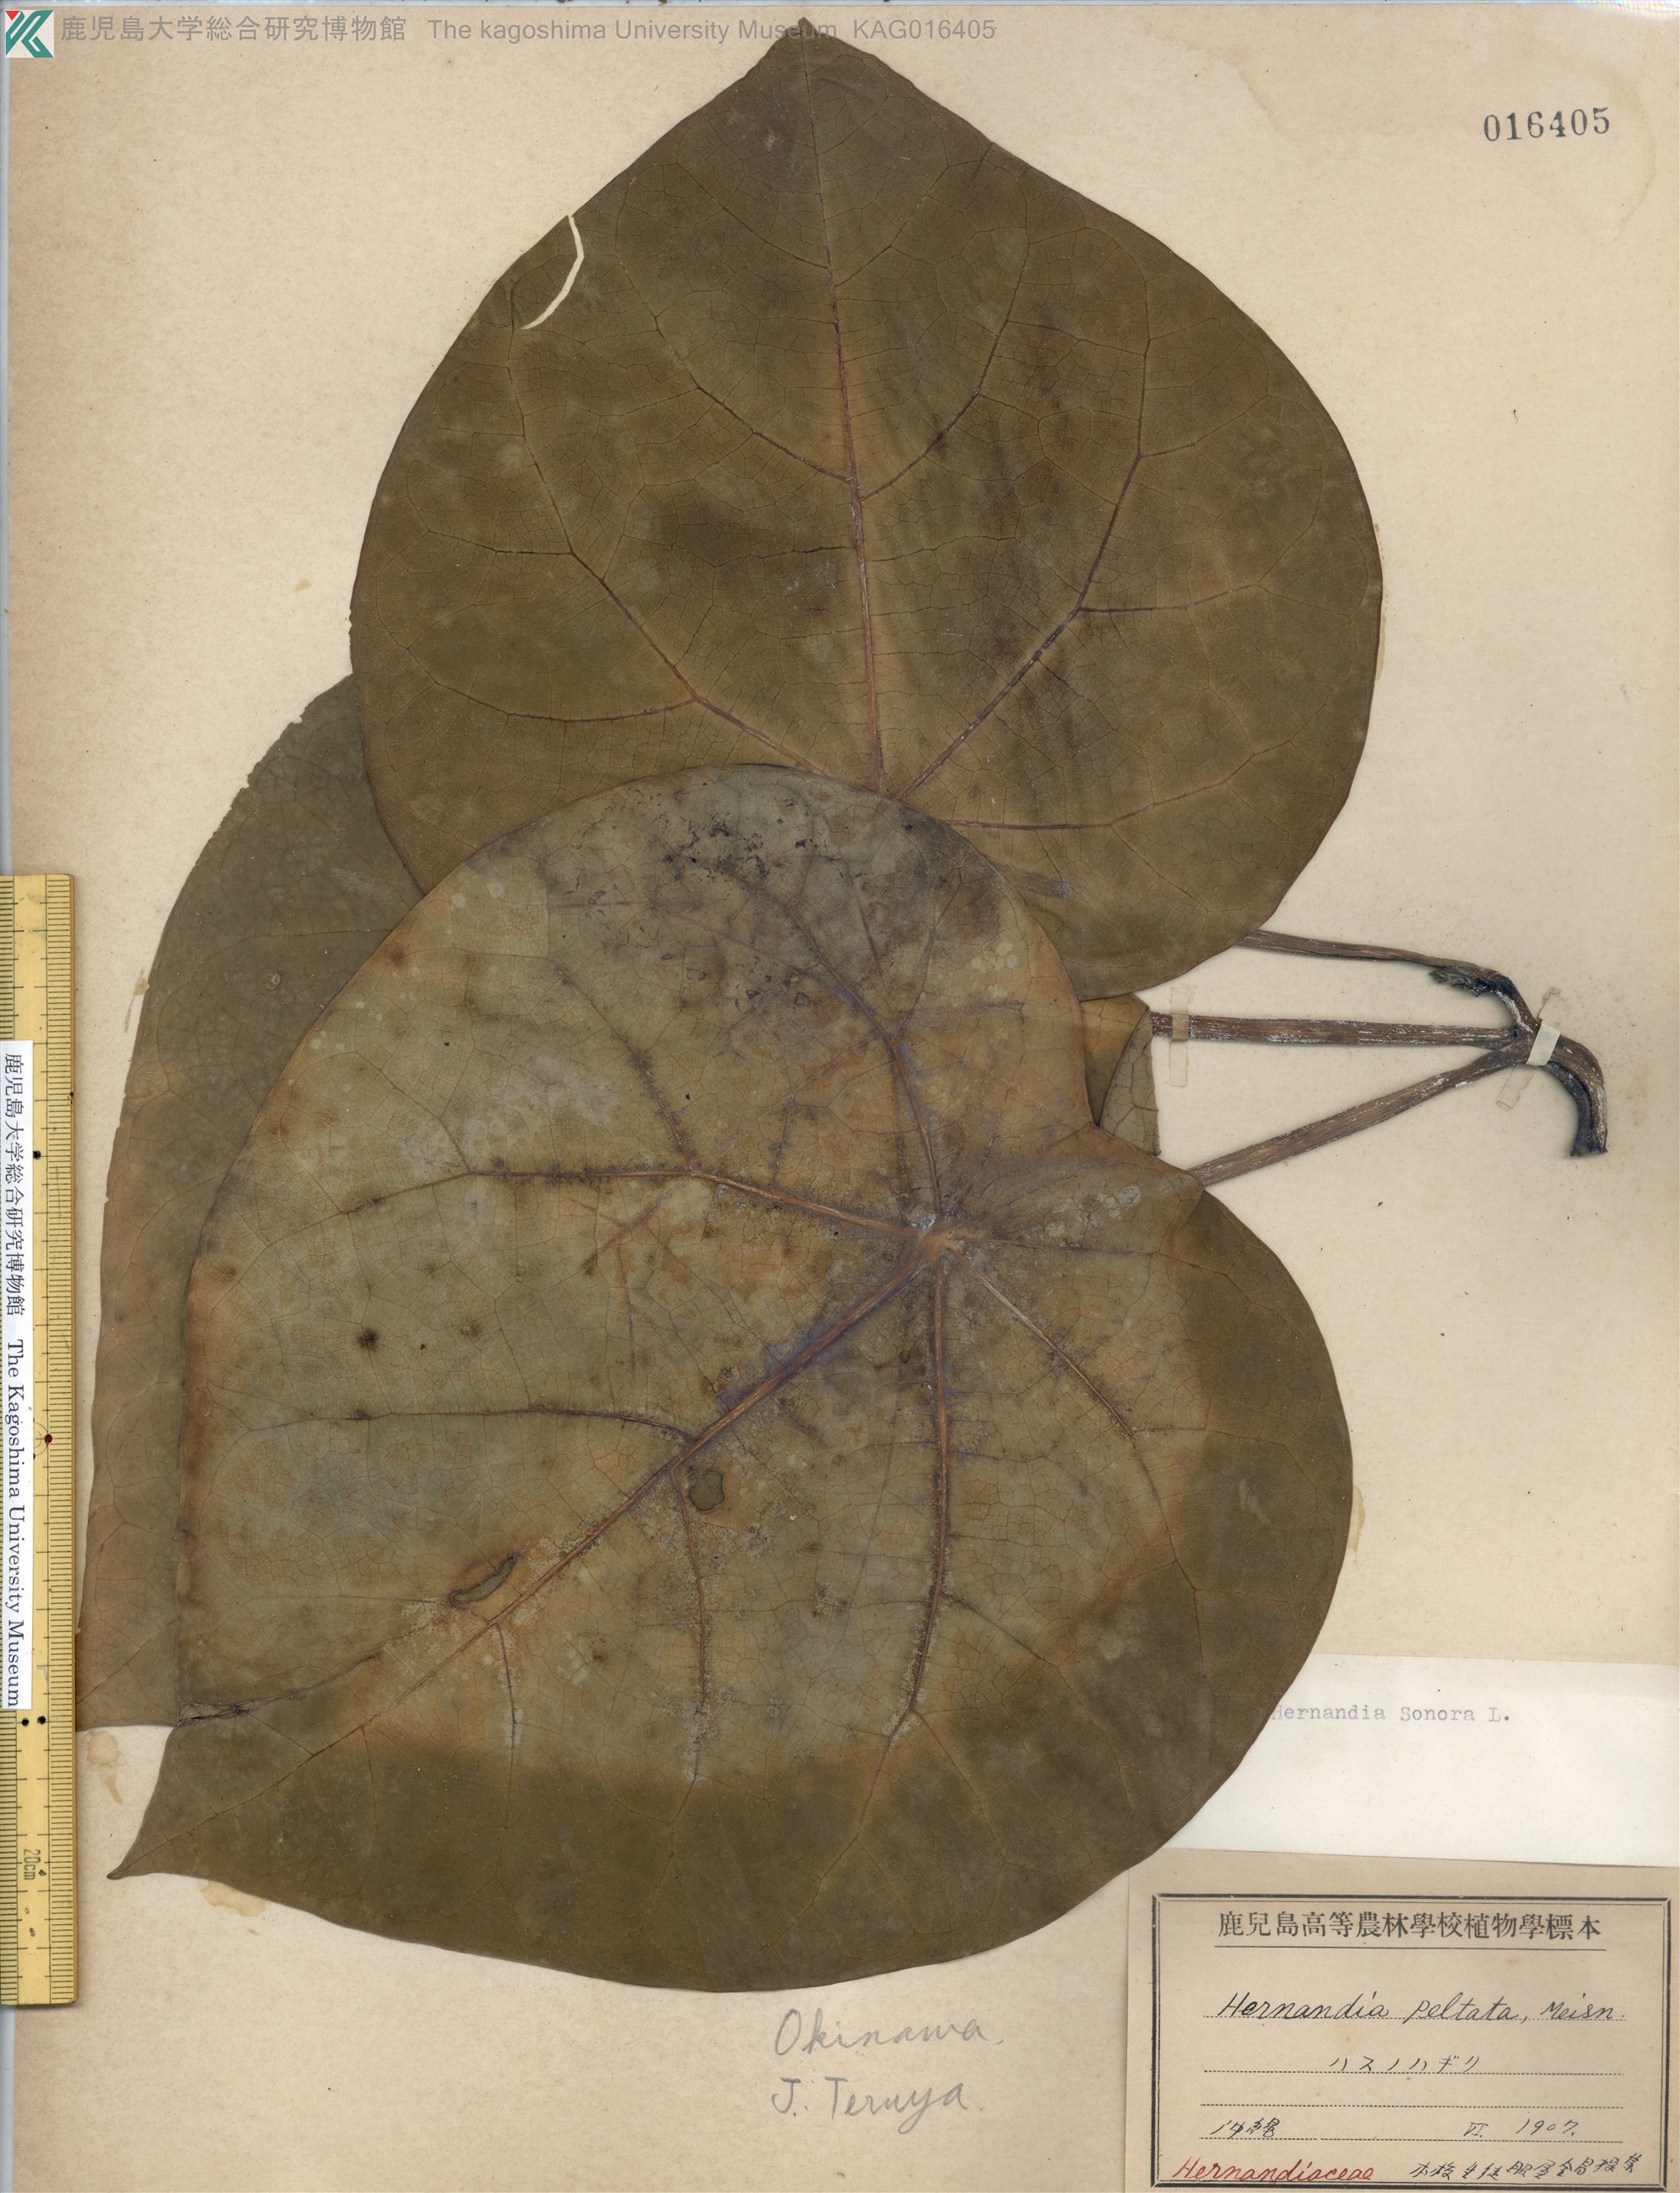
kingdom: Plantae
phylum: Tracheophyta
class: Magnoliopsida
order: Laurales
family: Hernandiaceae
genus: Hernandia
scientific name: Hernandia nymphaeifolia
